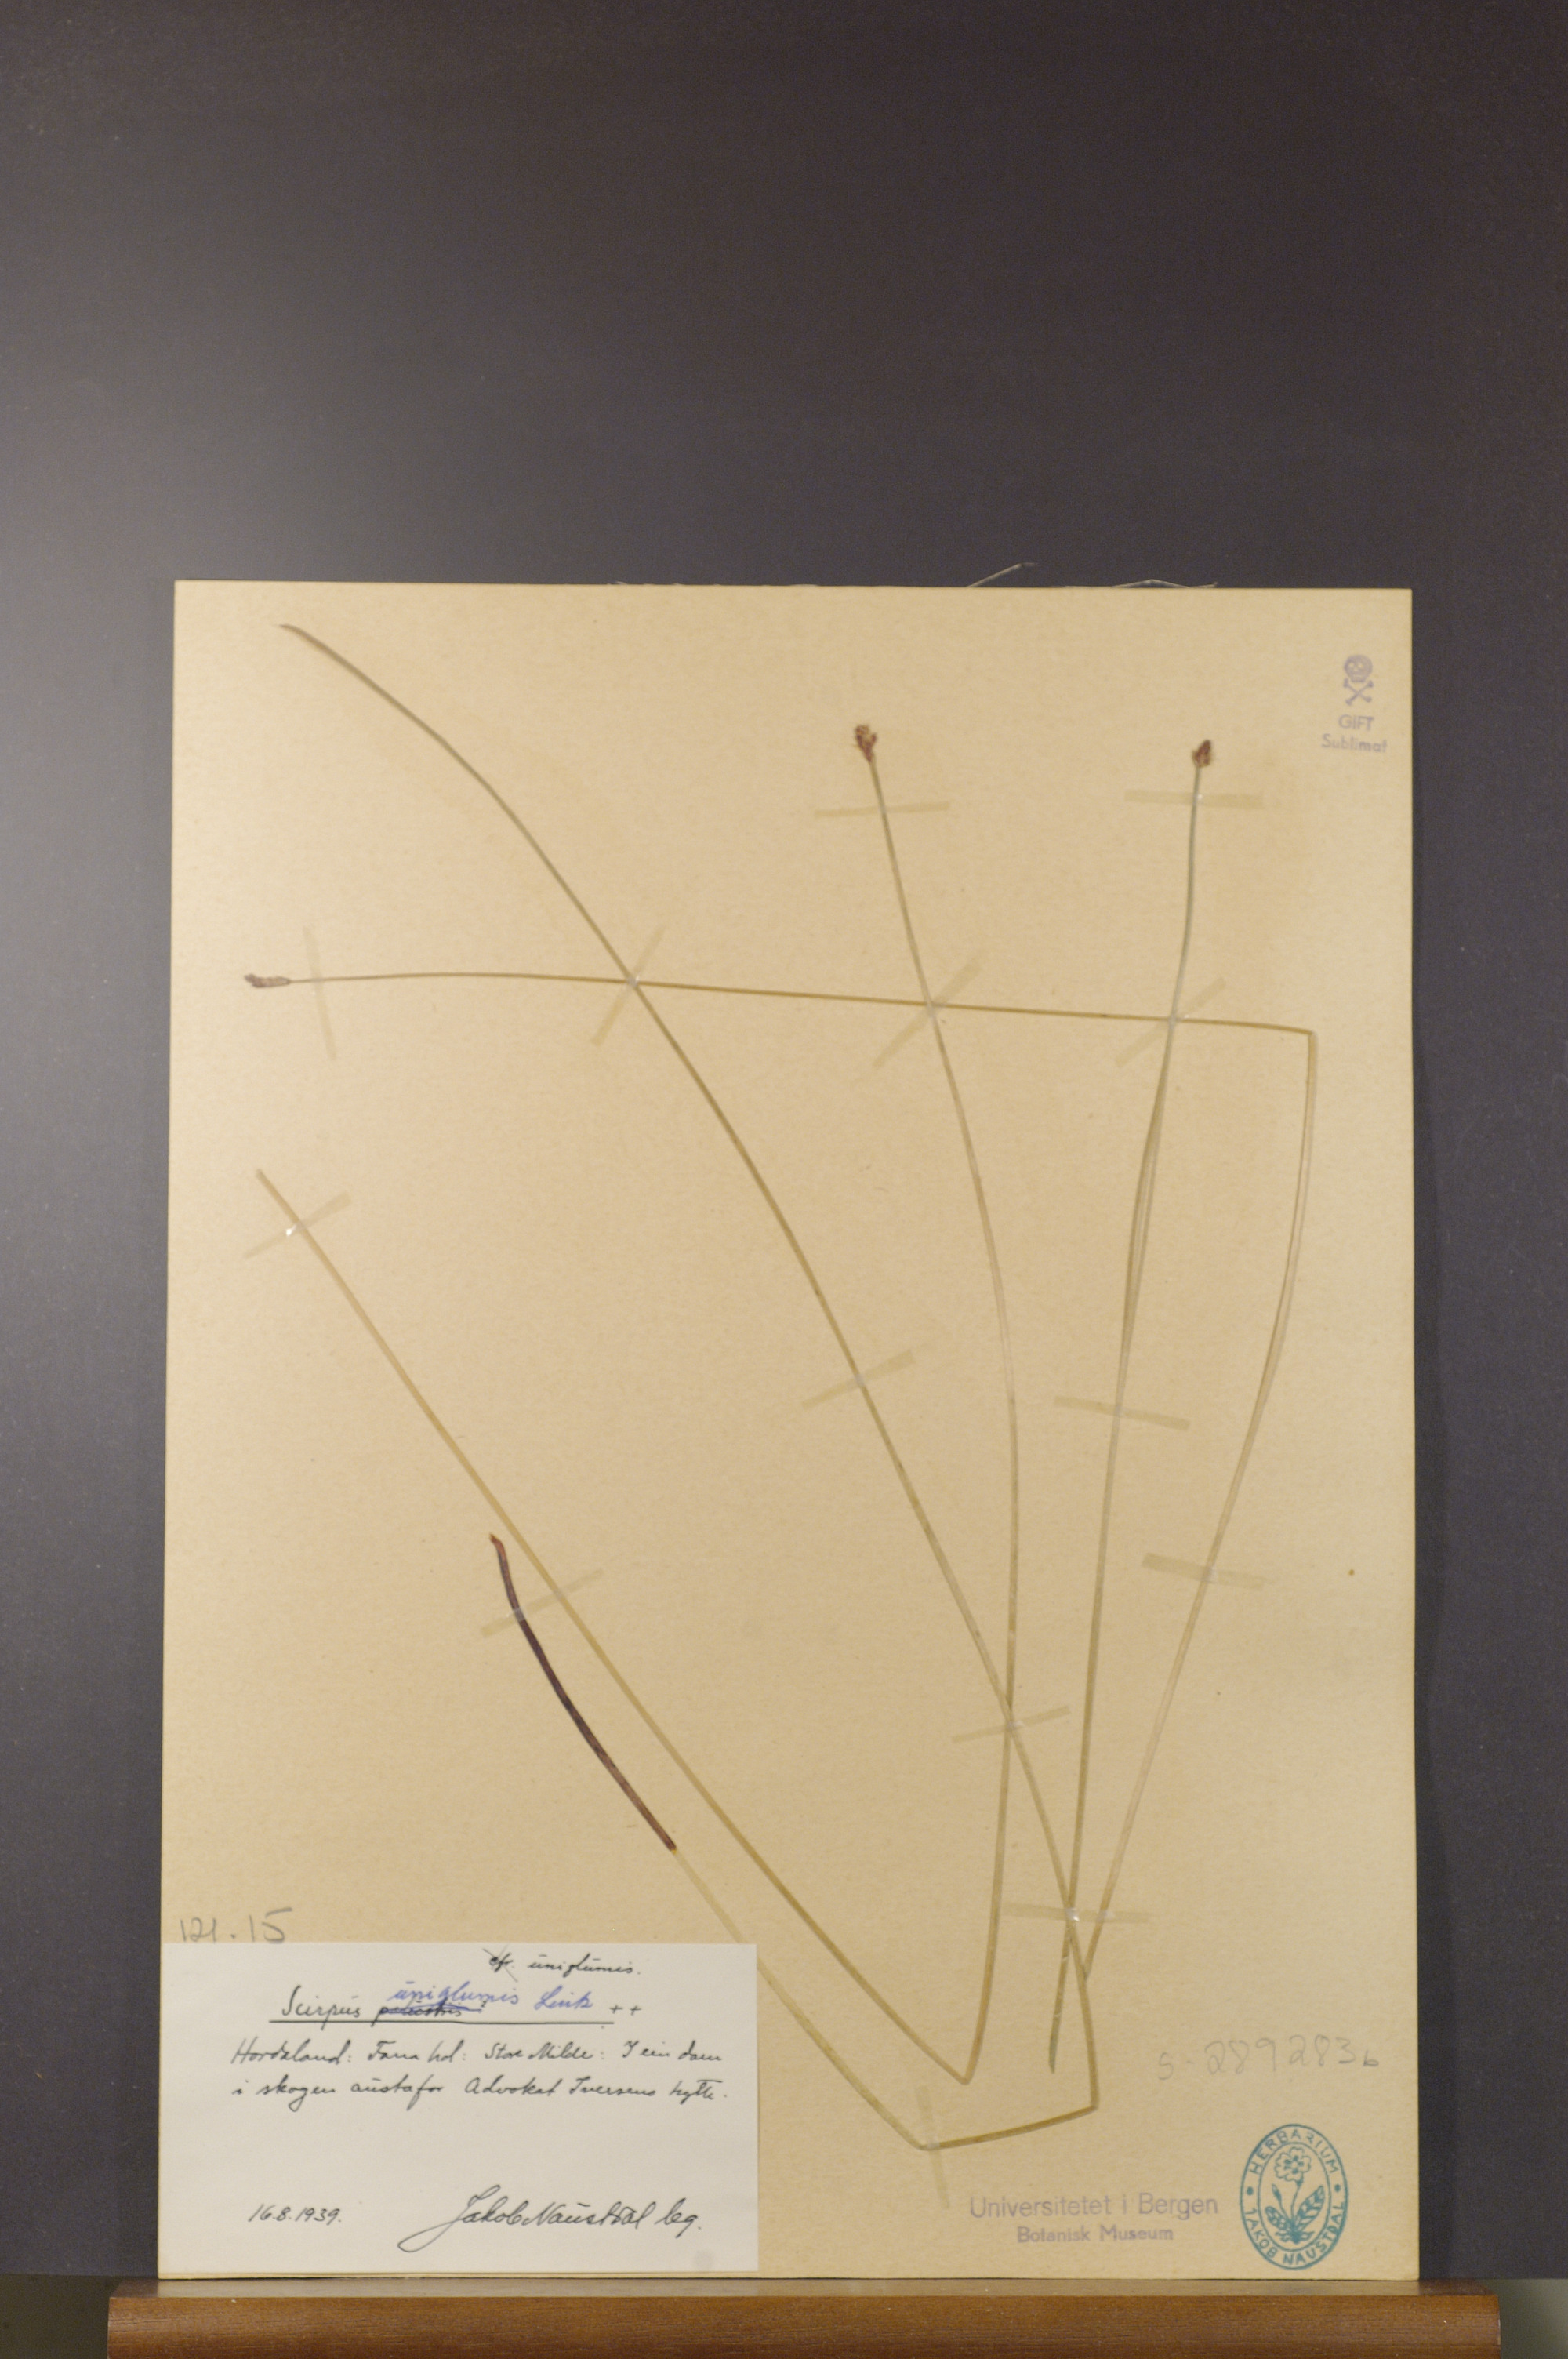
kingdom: Plantae
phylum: Tracheophyta
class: Liliopsida
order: Poales
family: Cyperaceae
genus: Eleocharis
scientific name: Eleocharis uniglumis
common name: Slender spike-rush
